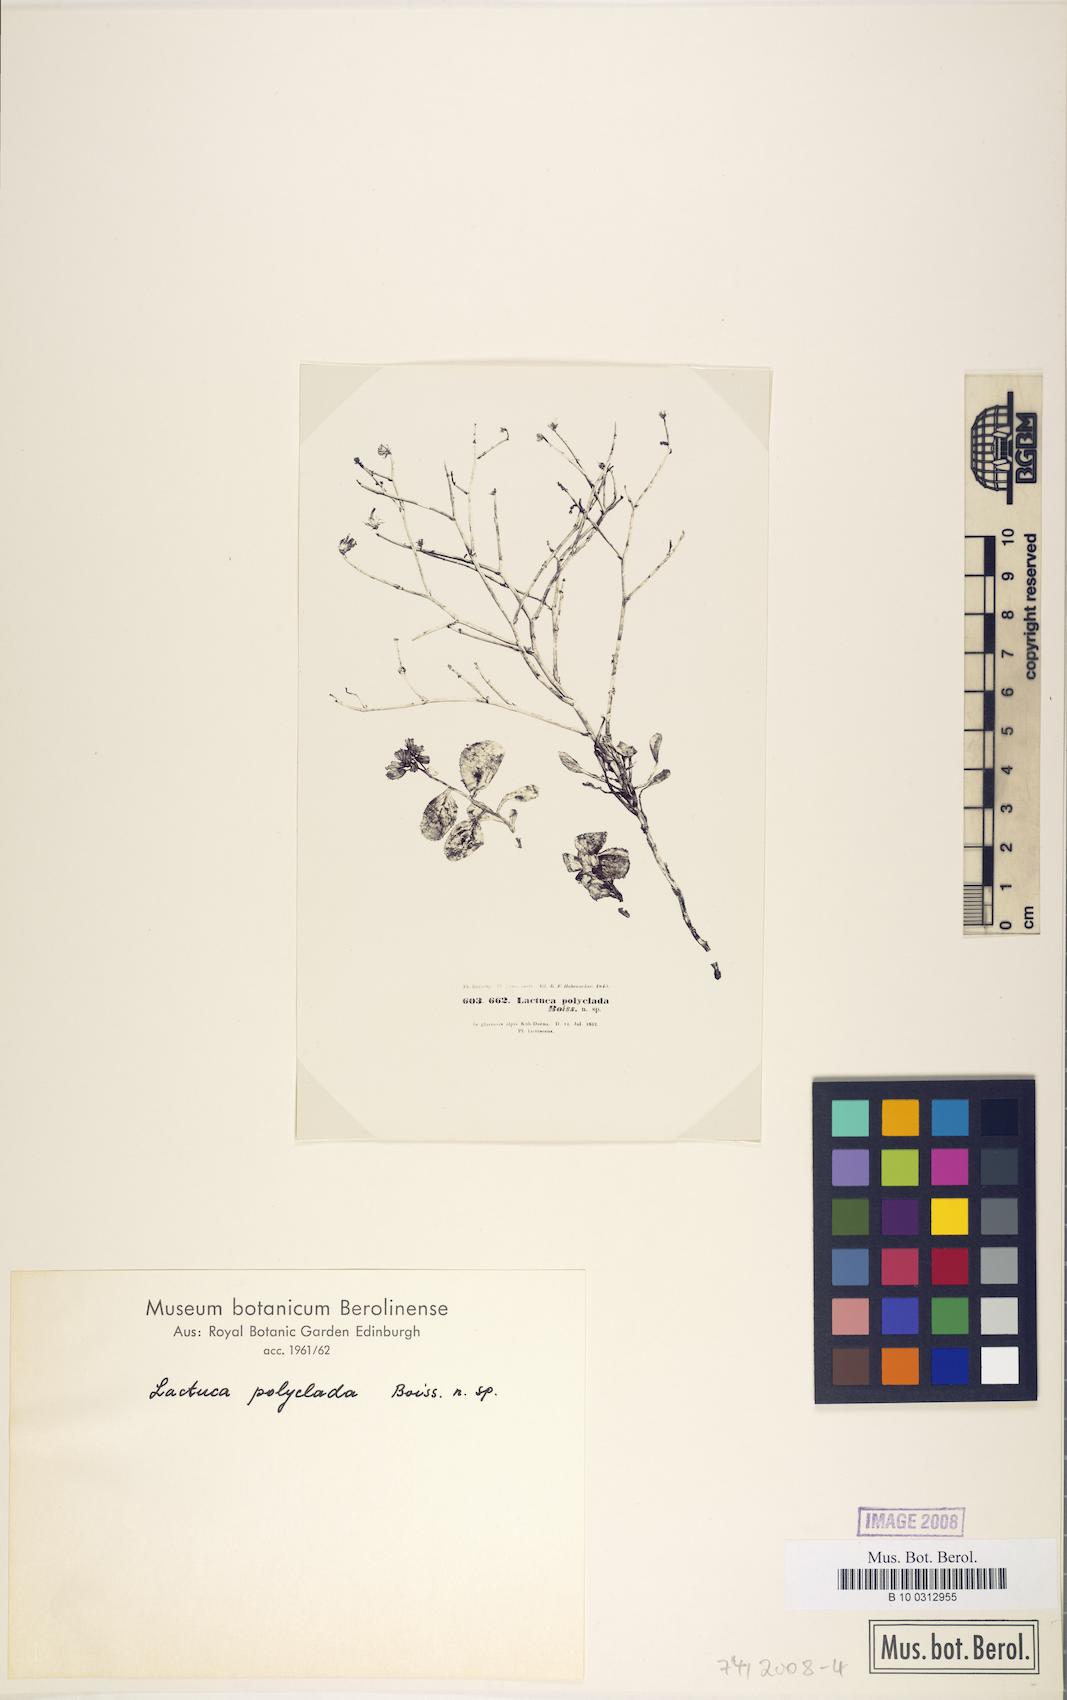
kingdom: Plantae
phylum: Tracheophyta
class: Magnoliopsida
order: Asterales
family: Asteraceae
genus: Lactuca
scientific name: Lactuca polyclada
